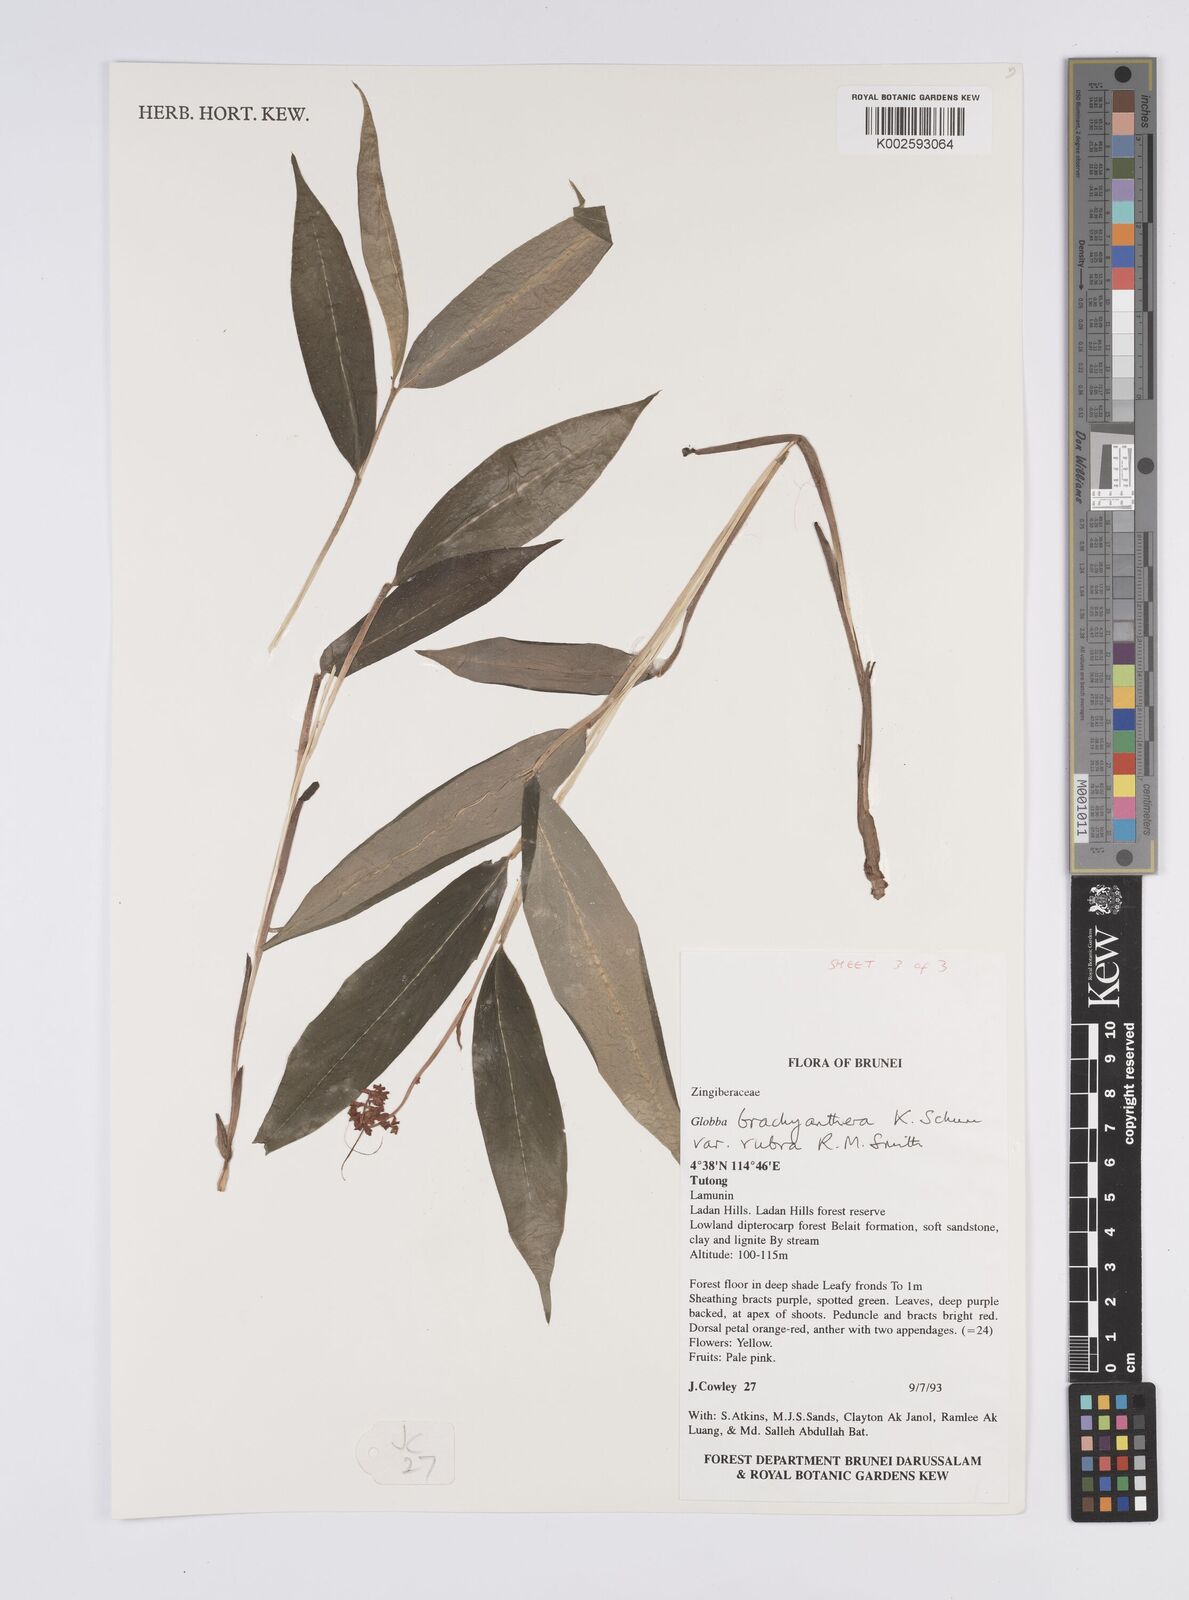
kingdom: Plantae
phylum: Tracheophyta
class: Liliopsida
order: Zingiberales
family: Zingiberaceae
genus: Globba
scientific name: Globba brachyanthera
